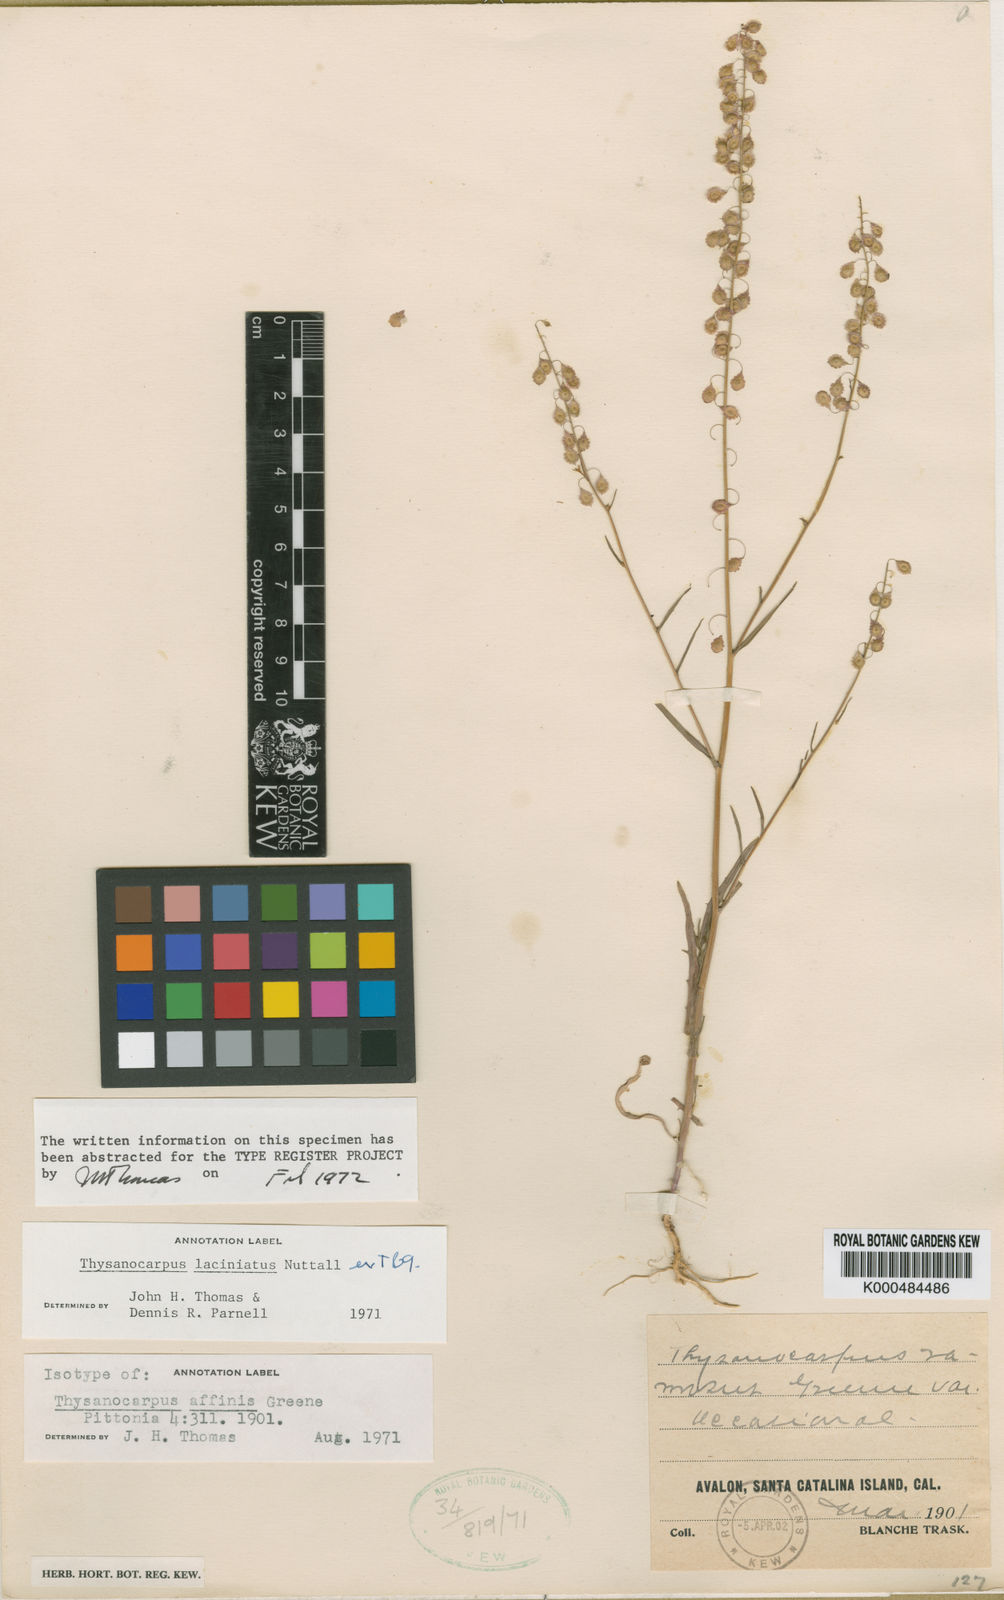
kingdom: Plantae
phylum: Tracheophyta
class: Magnoliopsida
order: Brassicales
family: Brassicaceae
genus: Thysanocarpus
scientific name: Thysanocarpus
